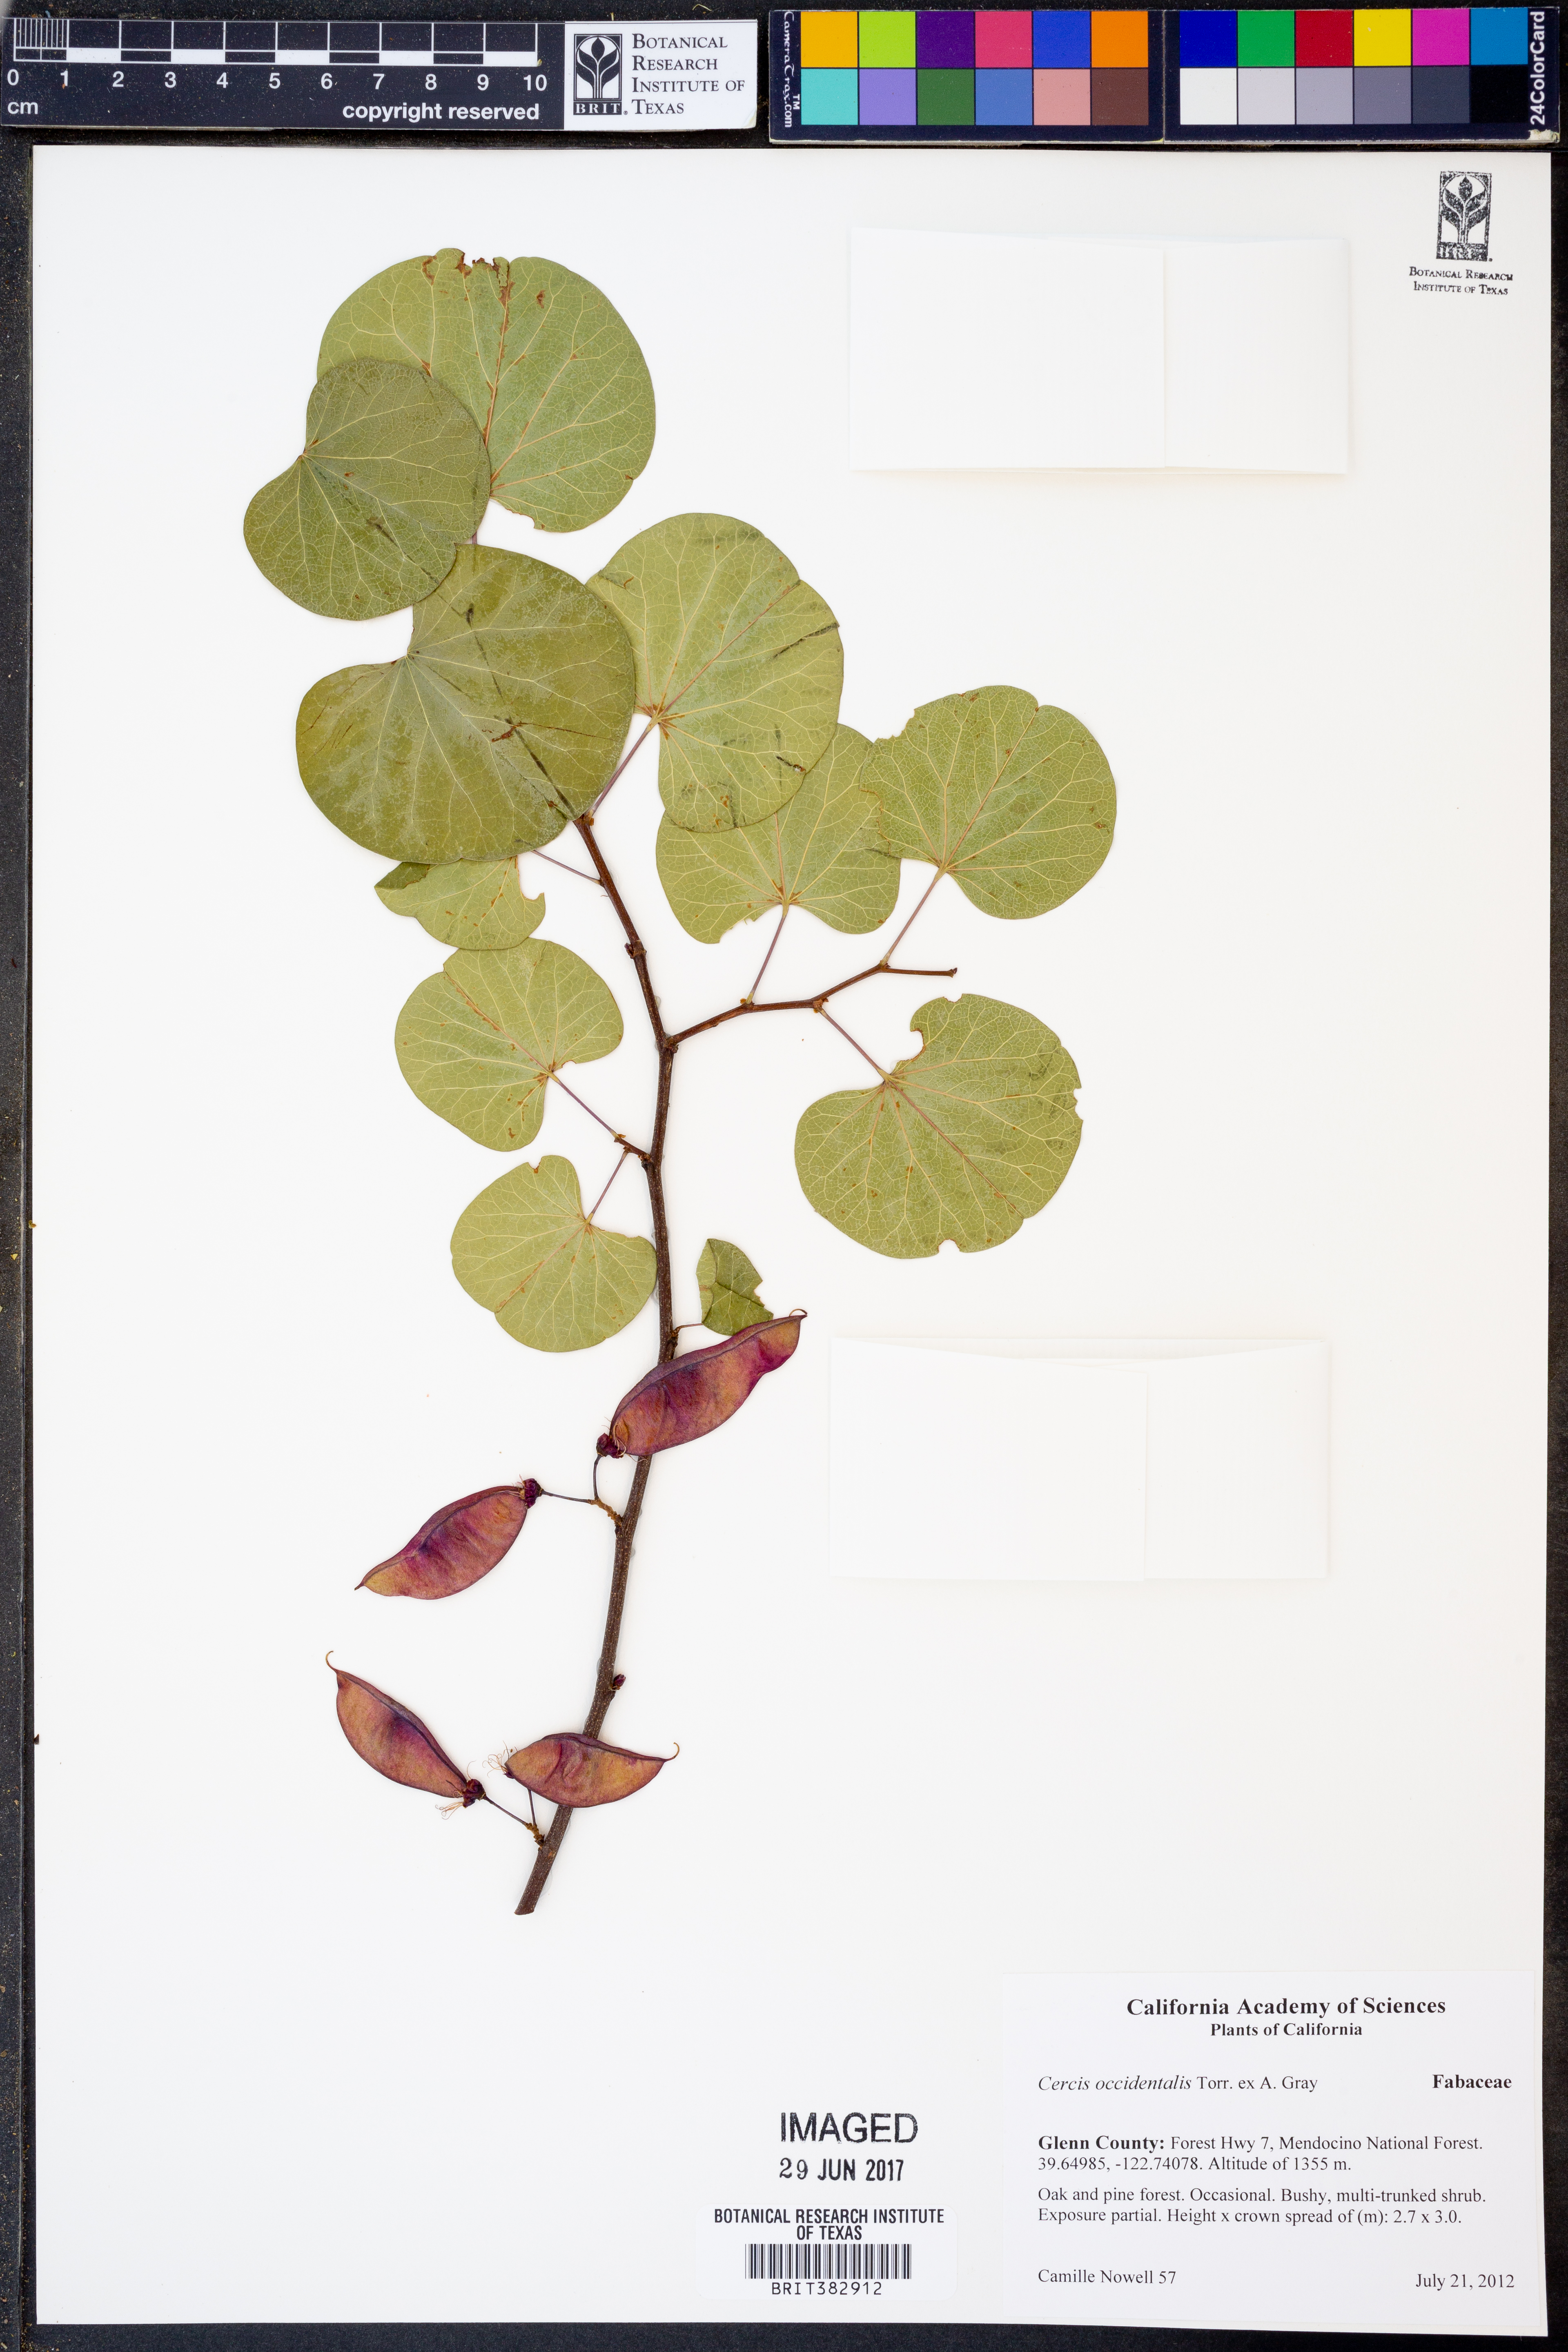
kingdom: Plantae
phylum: Tracheophyta
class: Magnoliopsida
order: Fabales
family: Fabaceae
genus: Cercis
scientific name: Cercis occidentalis
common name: California redbud
